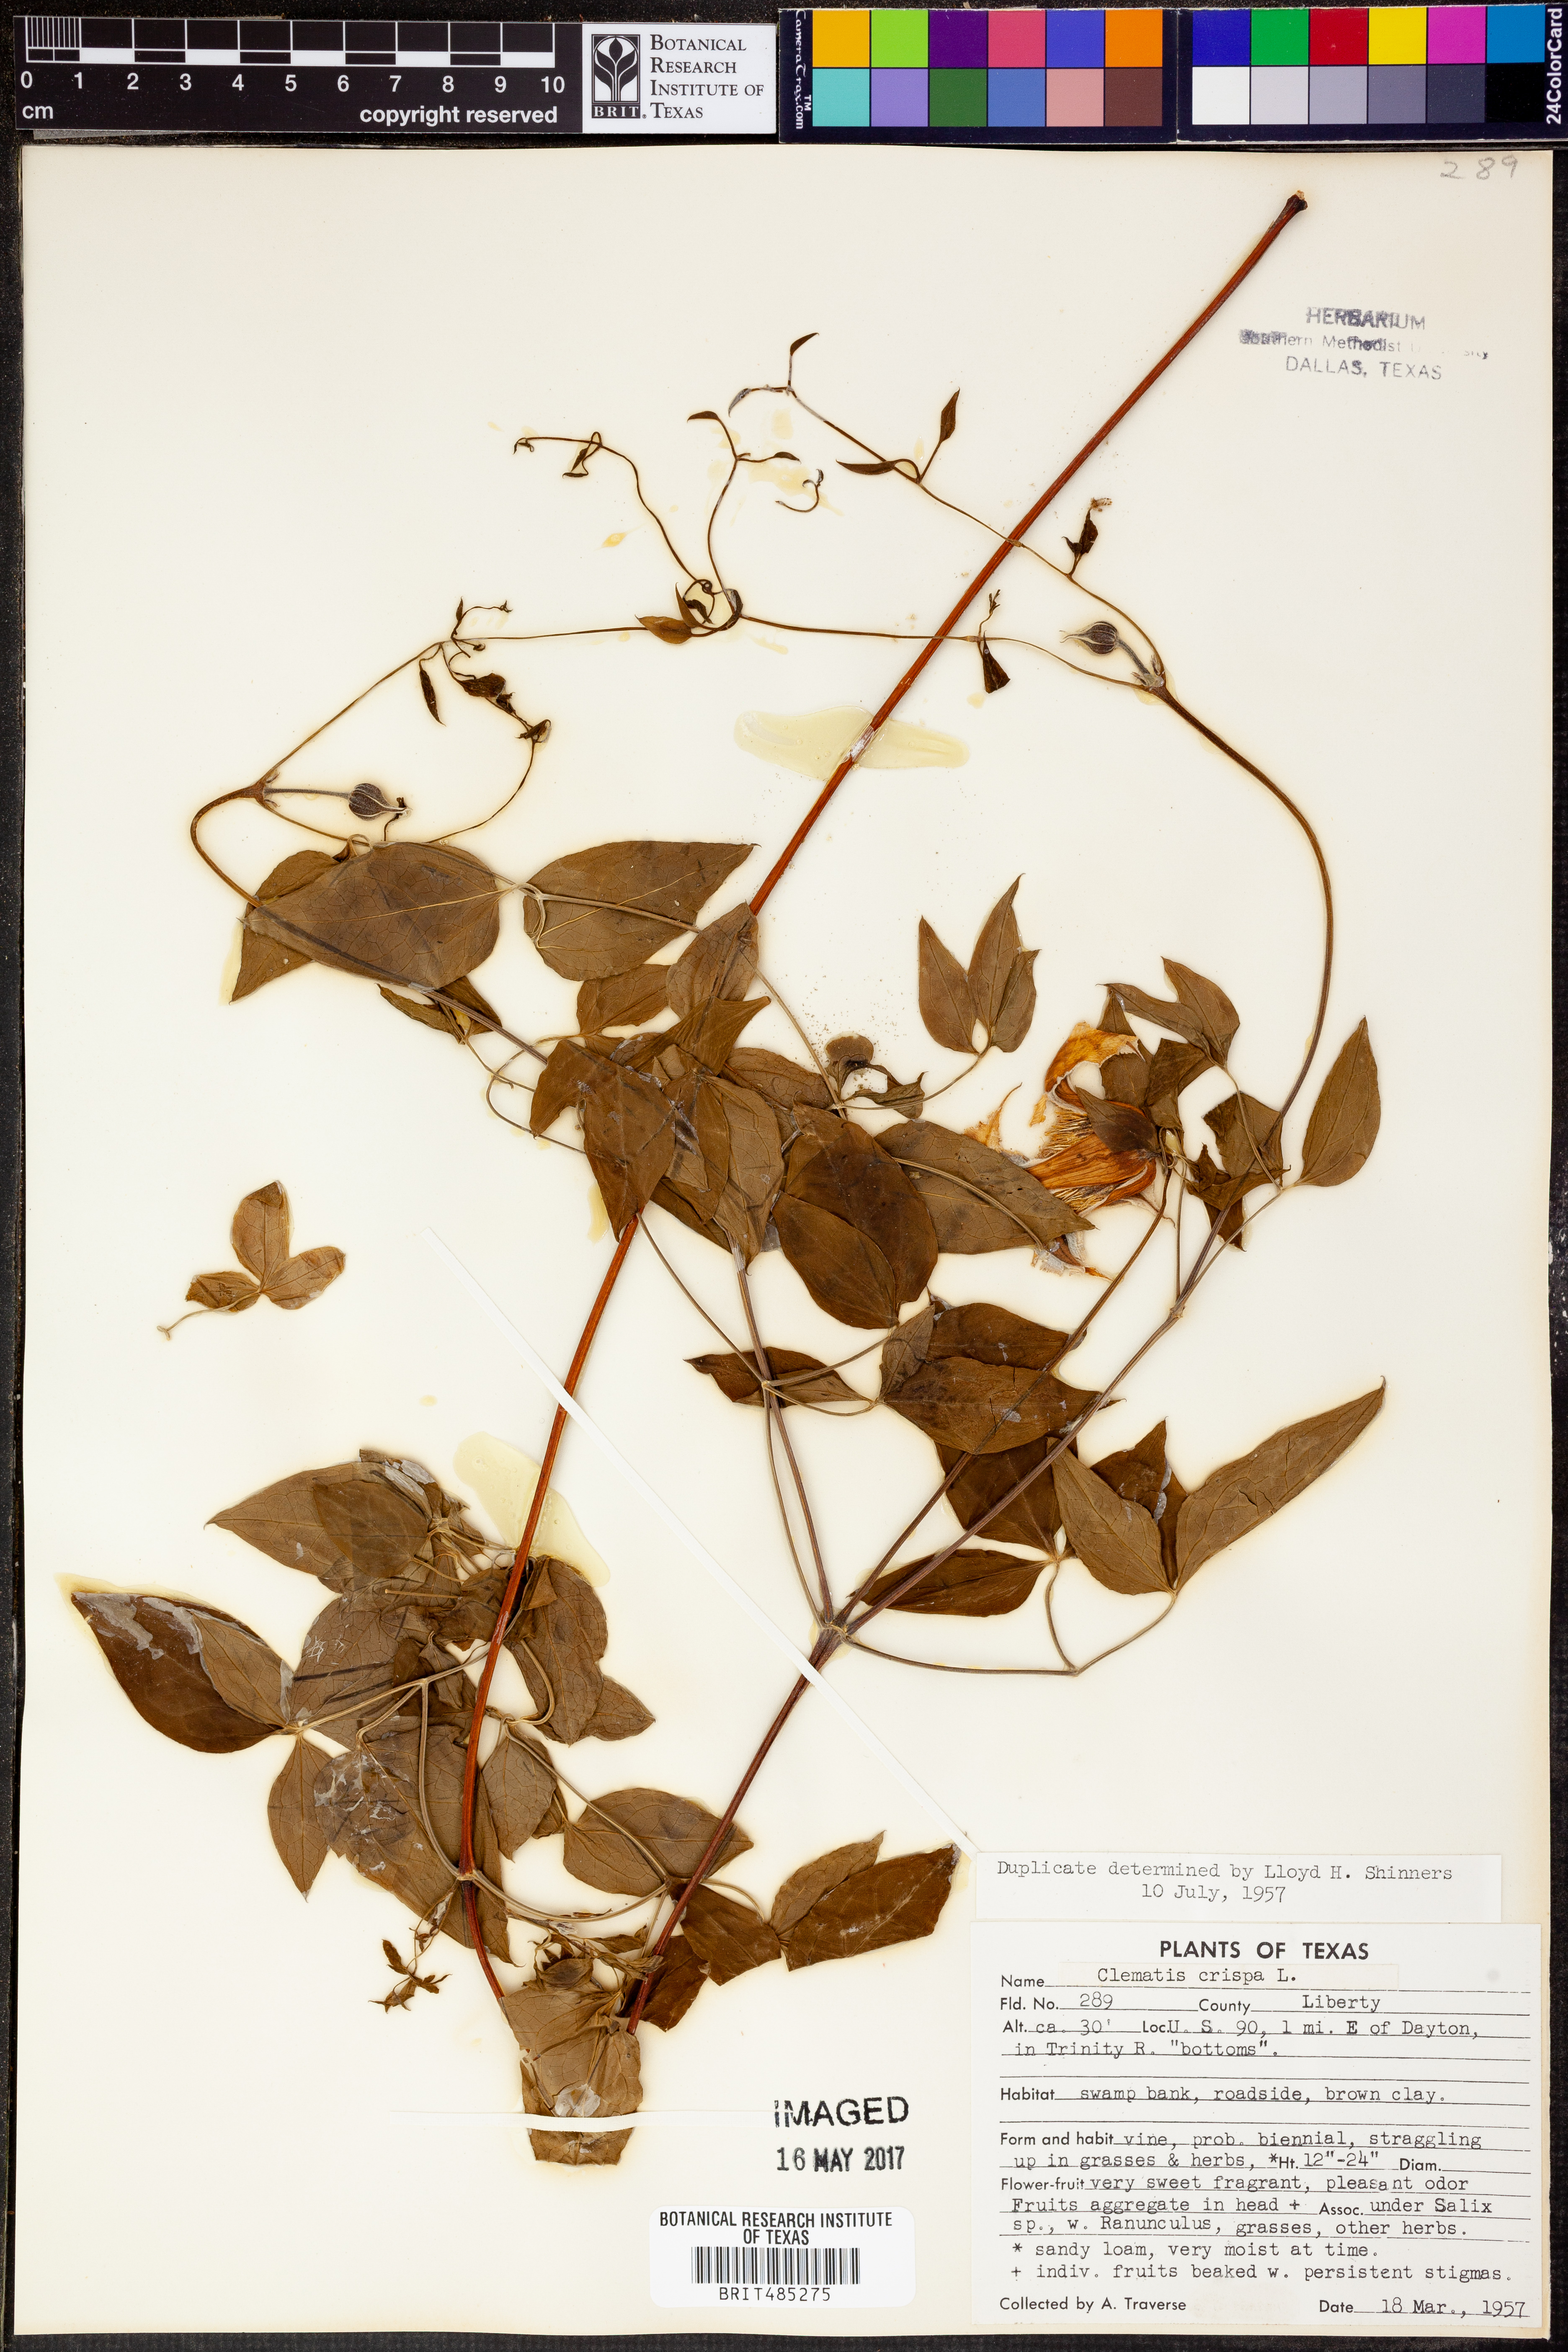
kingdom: Plantae
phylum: Tracheophyta
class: Magnoliopsida
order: Ranunculales
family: Ranunculaceae
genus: Clematis
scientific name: Clematis crispa
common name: Curly clematis
